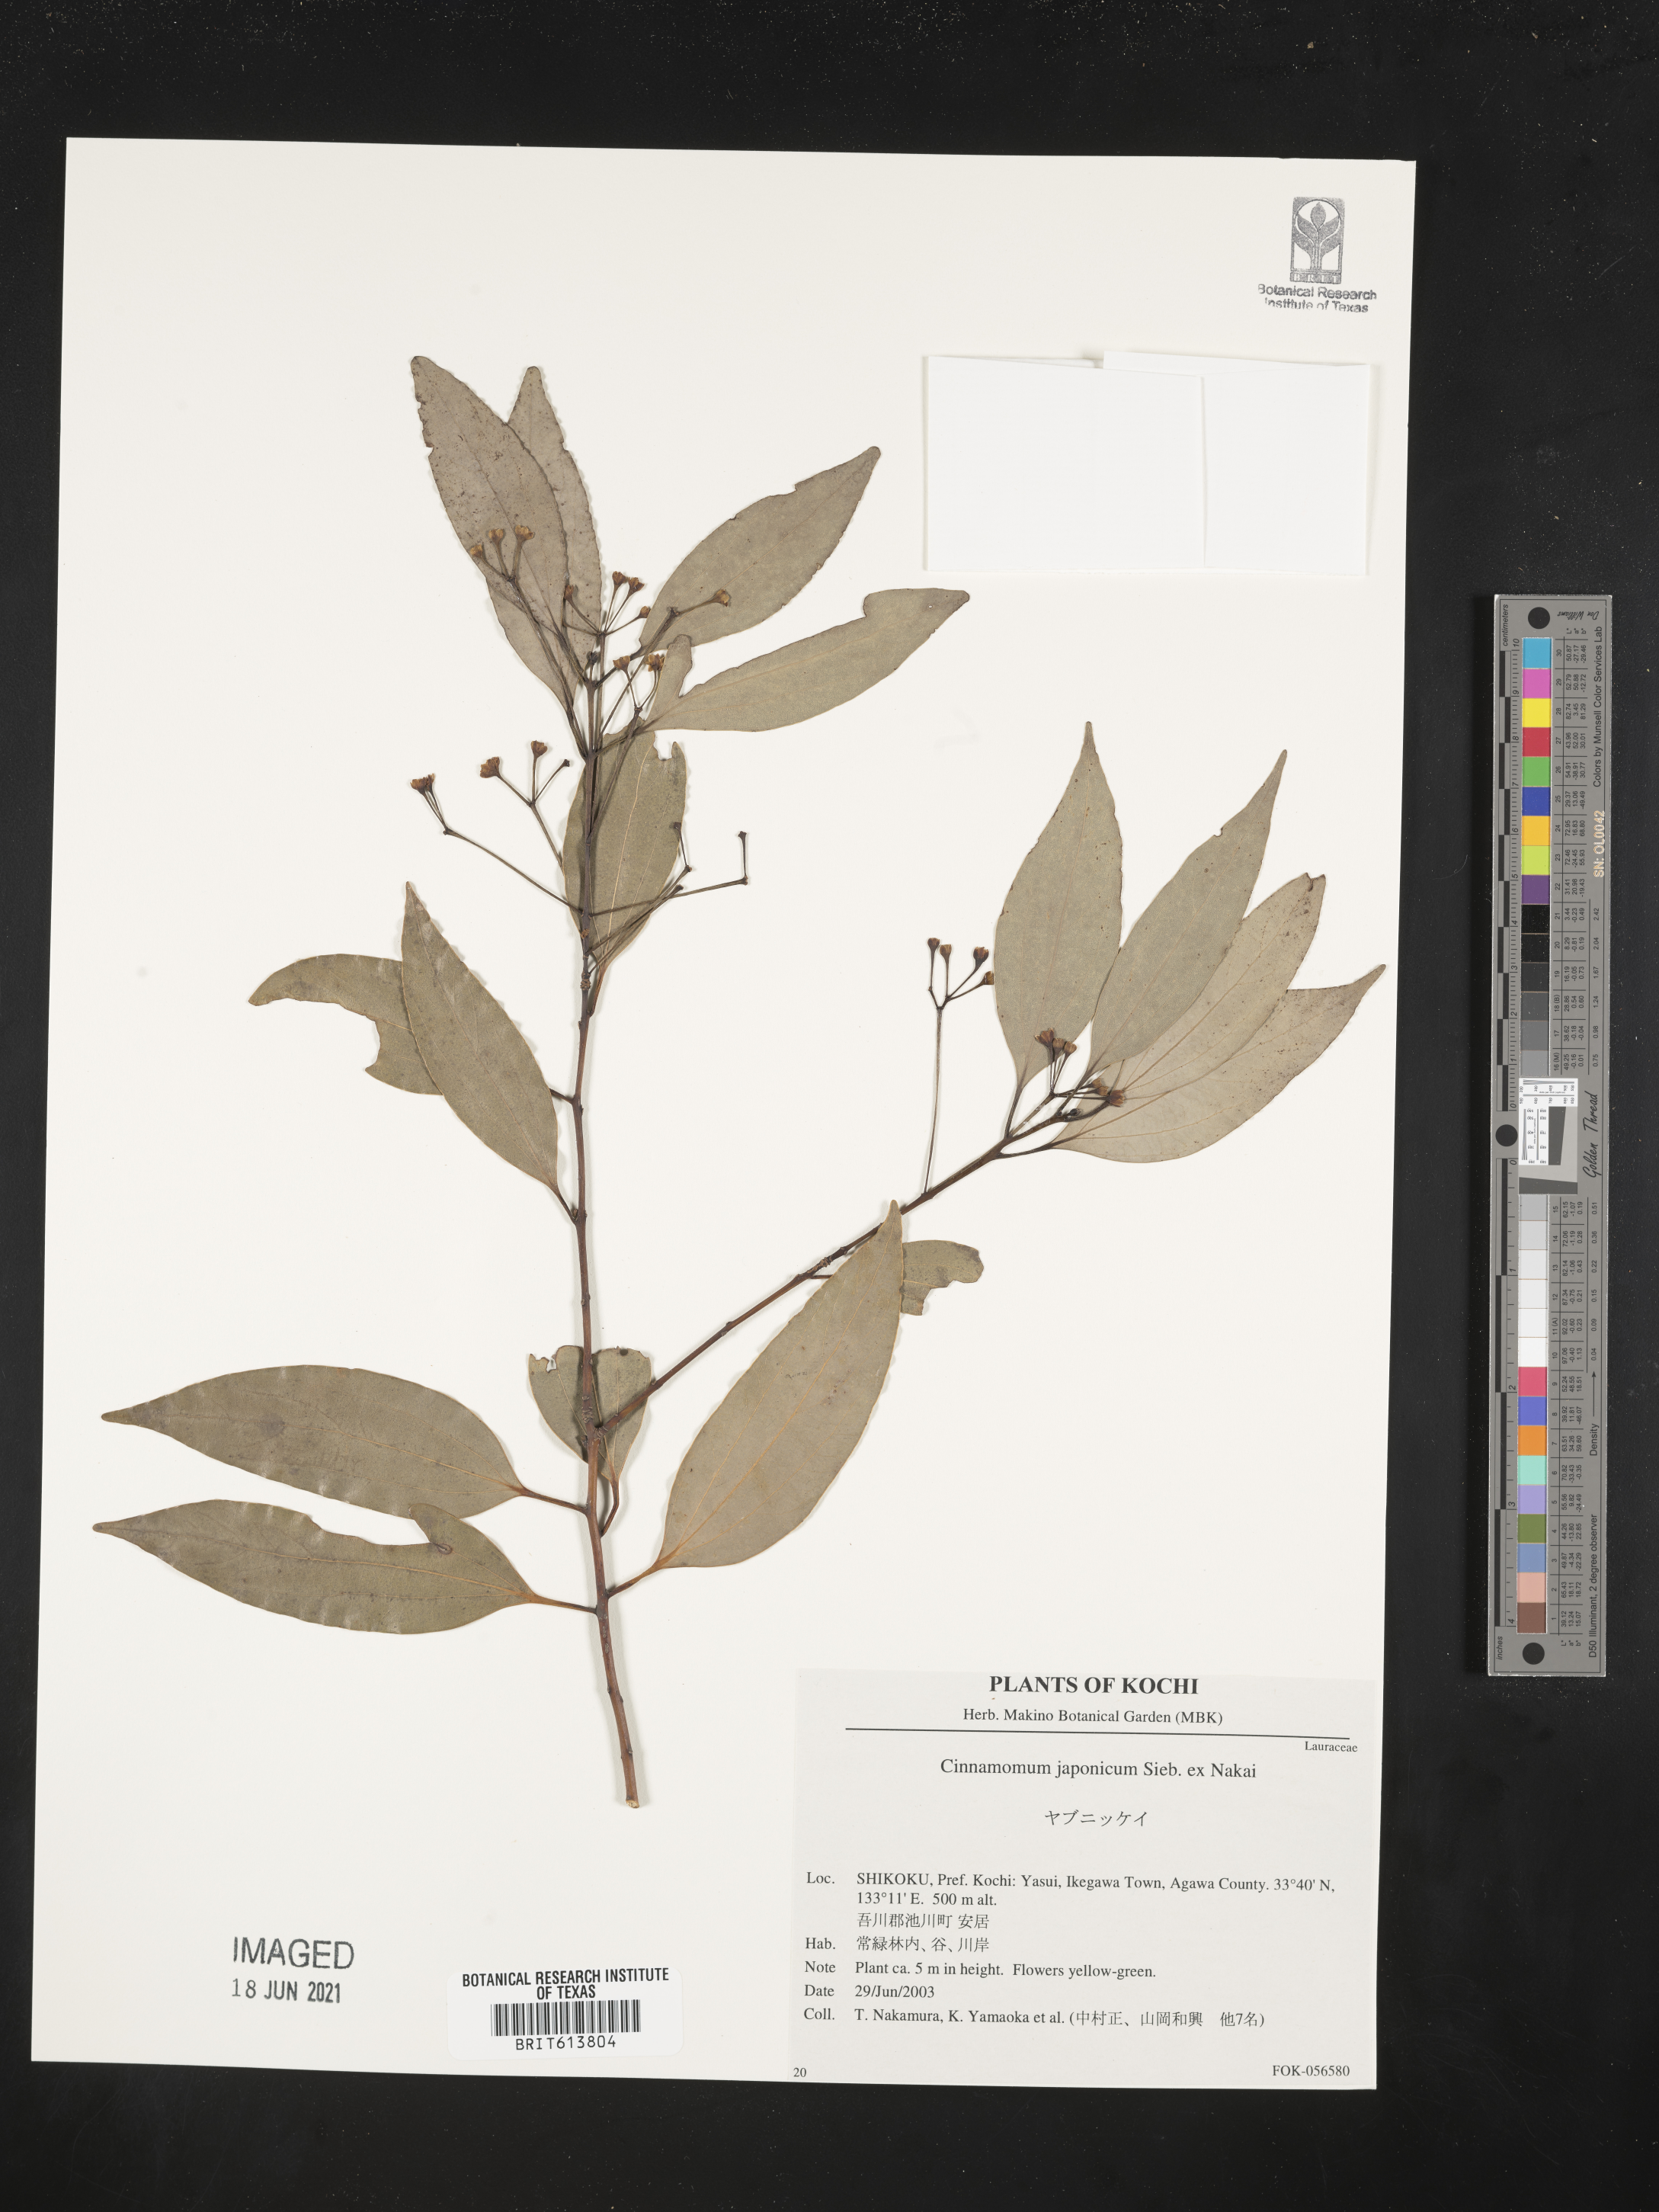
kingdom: Plantae
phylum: Tracheophyta
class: Magnoliopsida
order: Laurales
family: Lauraceae
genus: Cinnamomum
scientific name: Cinnamomum chekiangense
